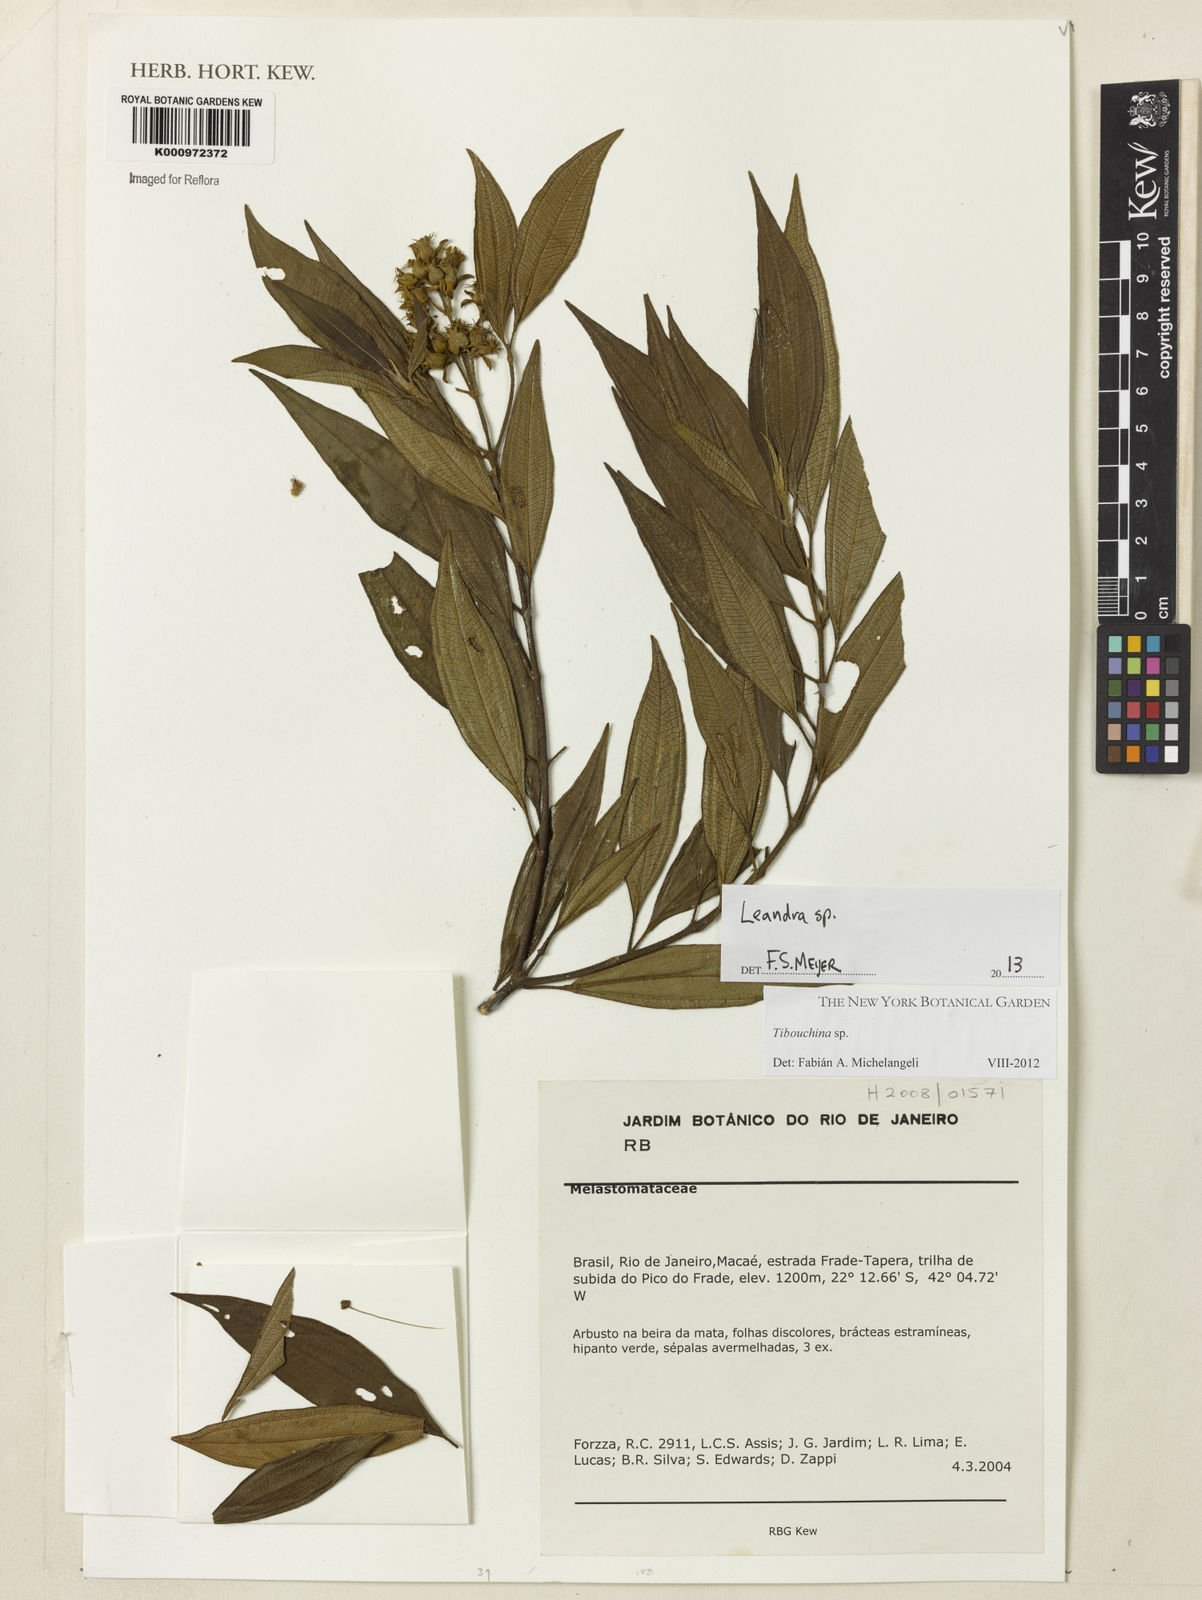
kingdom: Plantae
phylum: Tracheophyta
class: Magnoliopsida
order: Myrtales
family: Melastomataceae
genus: Miconia
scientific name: Miconia
